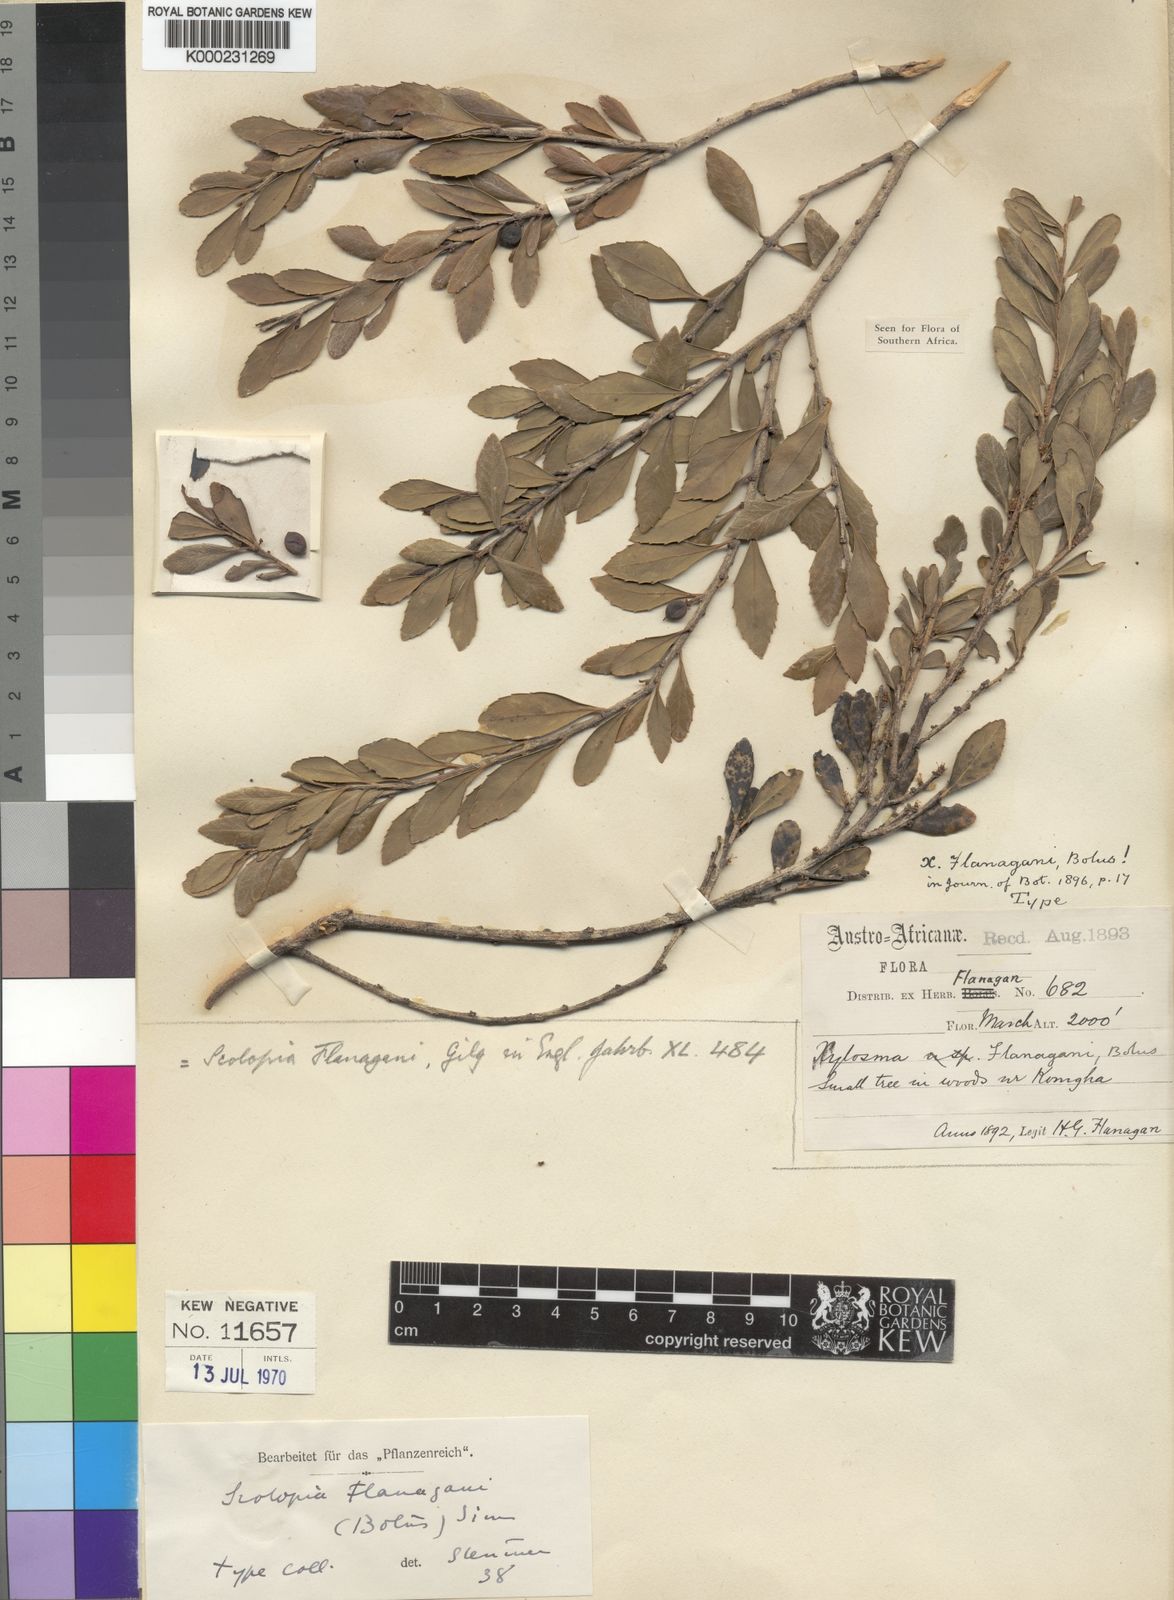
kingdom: Plantae
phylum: Tracheophyta
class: Magnoliopsida
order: Malpighiales
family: Salicaceae
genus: Scolopia
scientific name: Scolopia flanaganii
